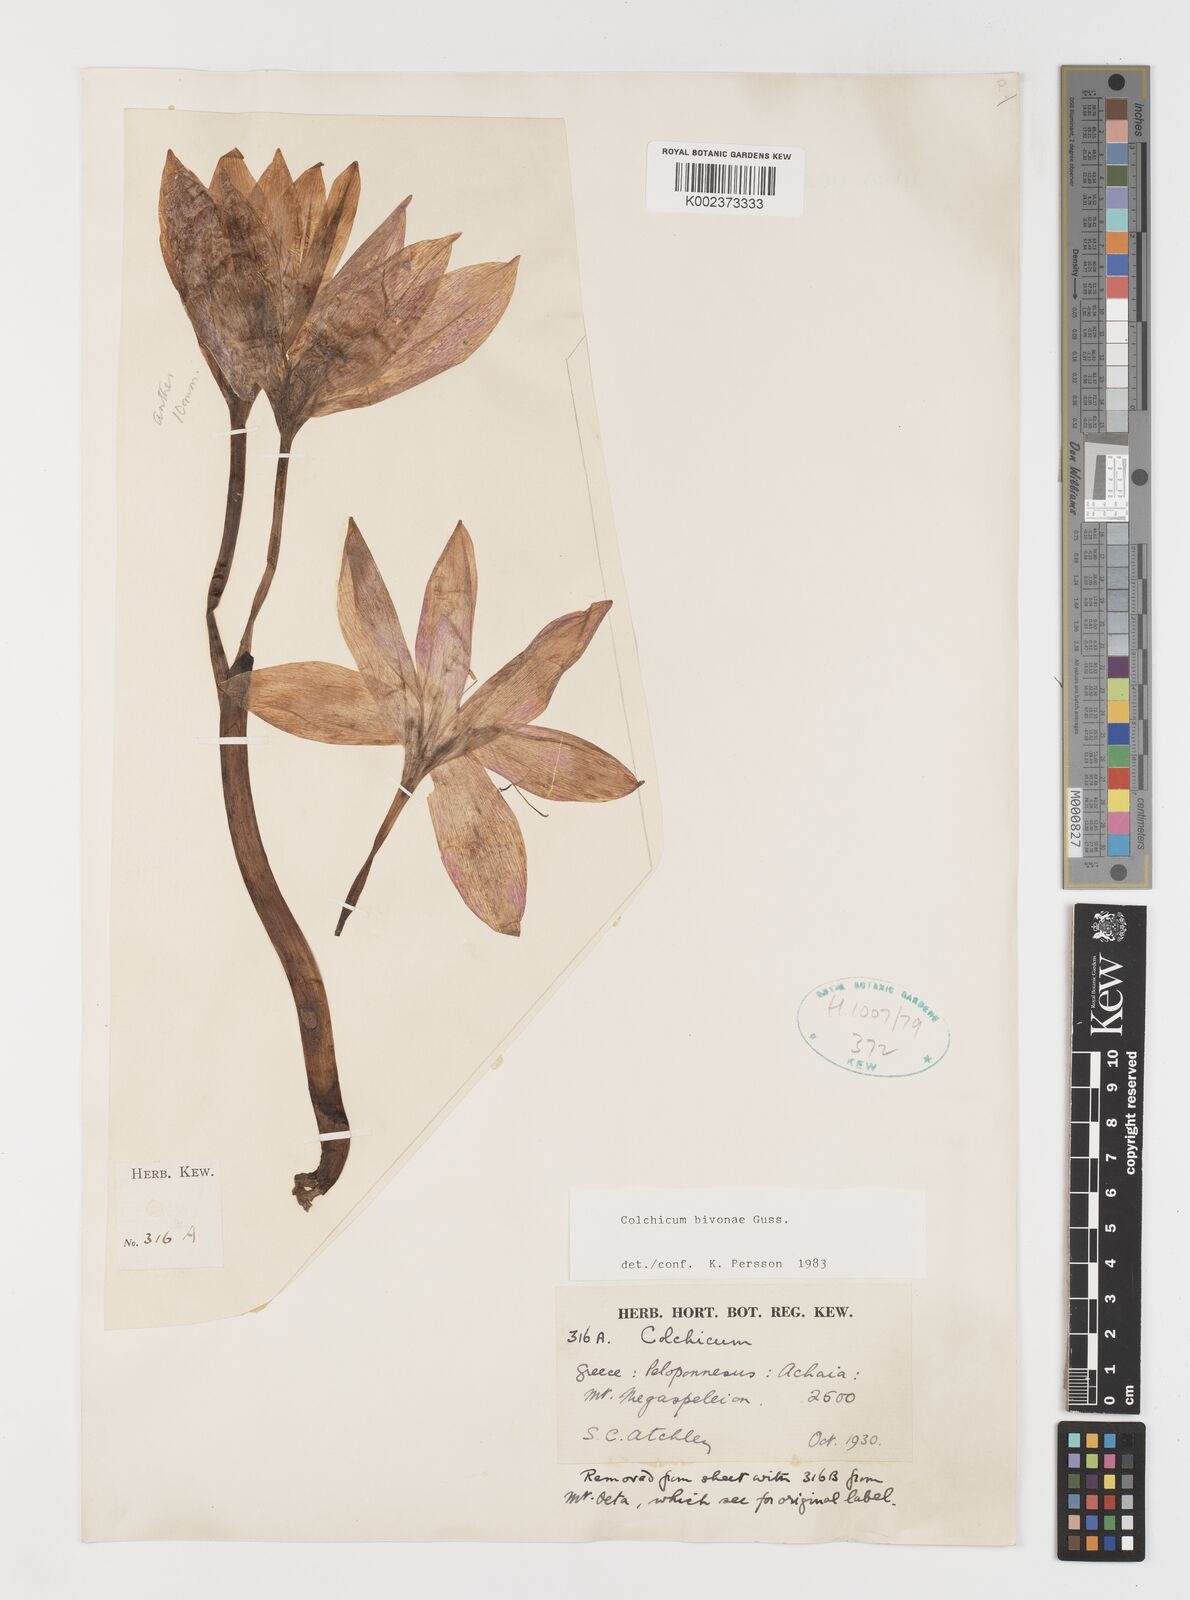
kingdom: Plantae
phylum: Tracheophyta
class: Liliopsida
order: Liliales
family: Colchicaceae
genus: Colchicum
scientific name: Colchicum bivonae
